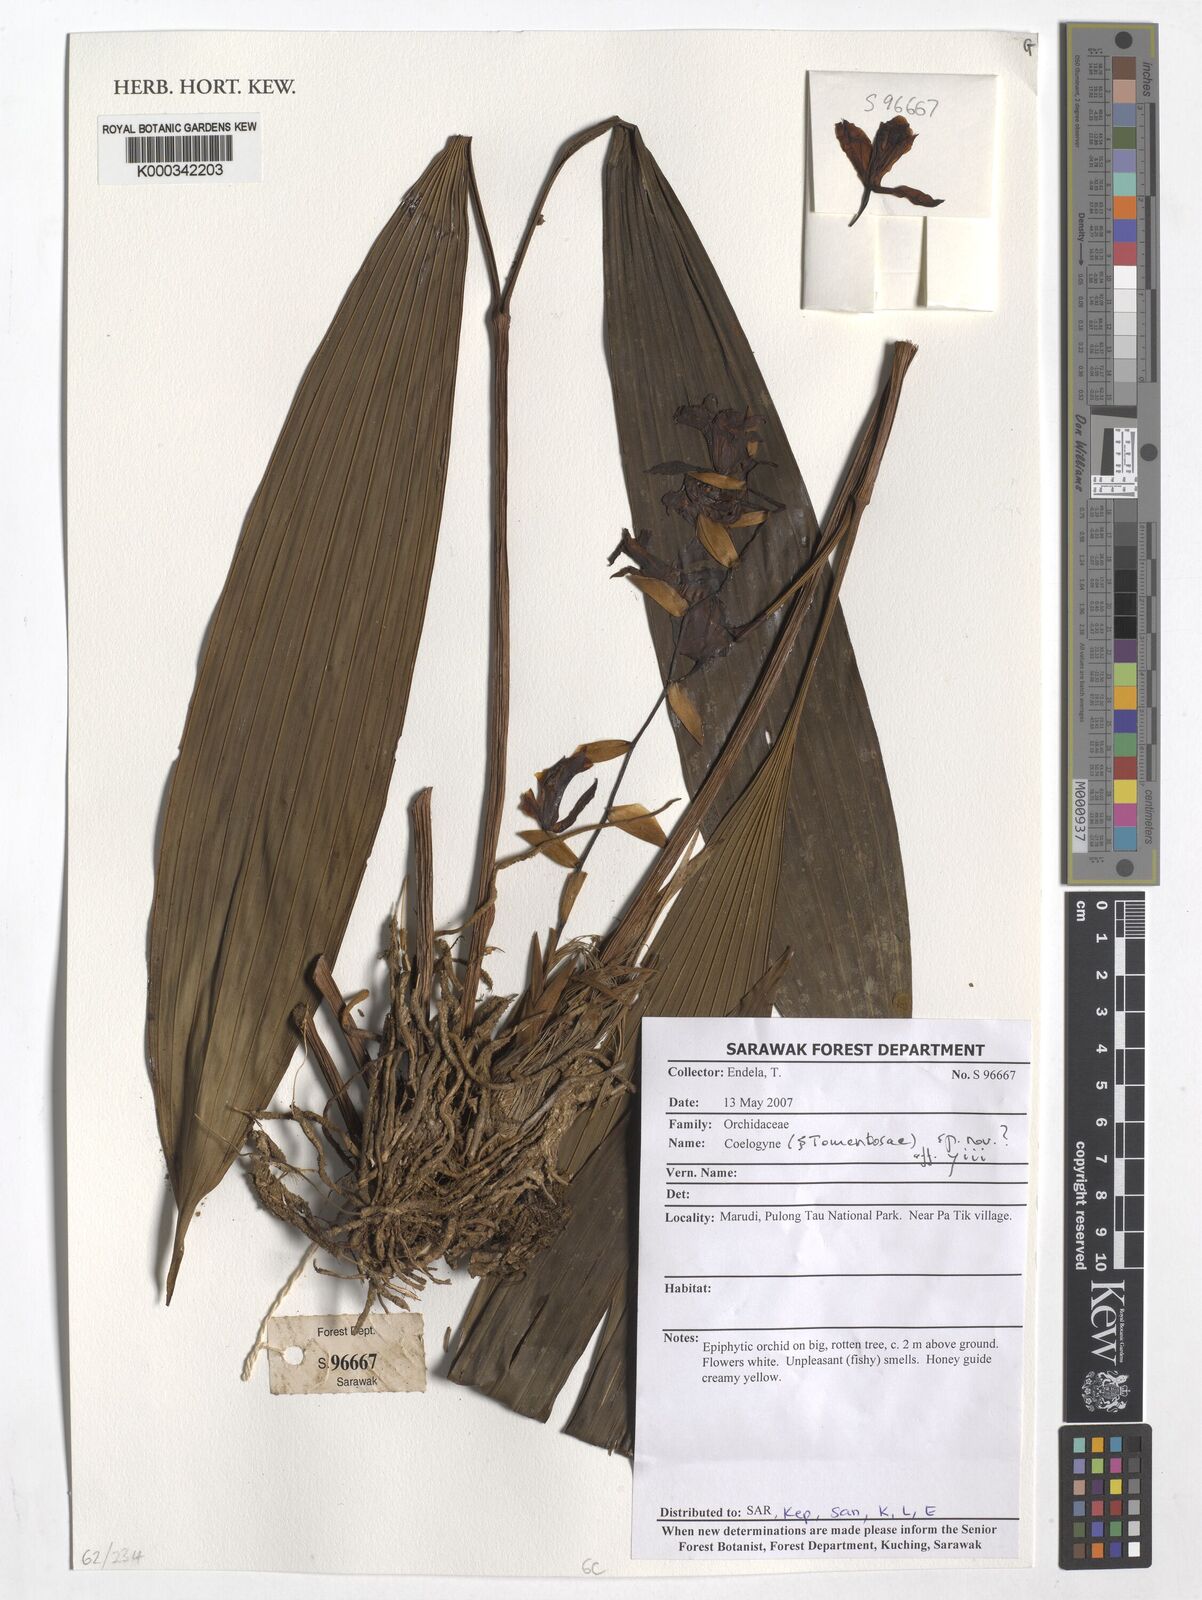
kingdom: Plantae
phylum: Tracheophyta
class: Liliopsida
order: Asparagales
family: Orchidaceae
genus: Coelogyne
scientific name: Coelogyne
